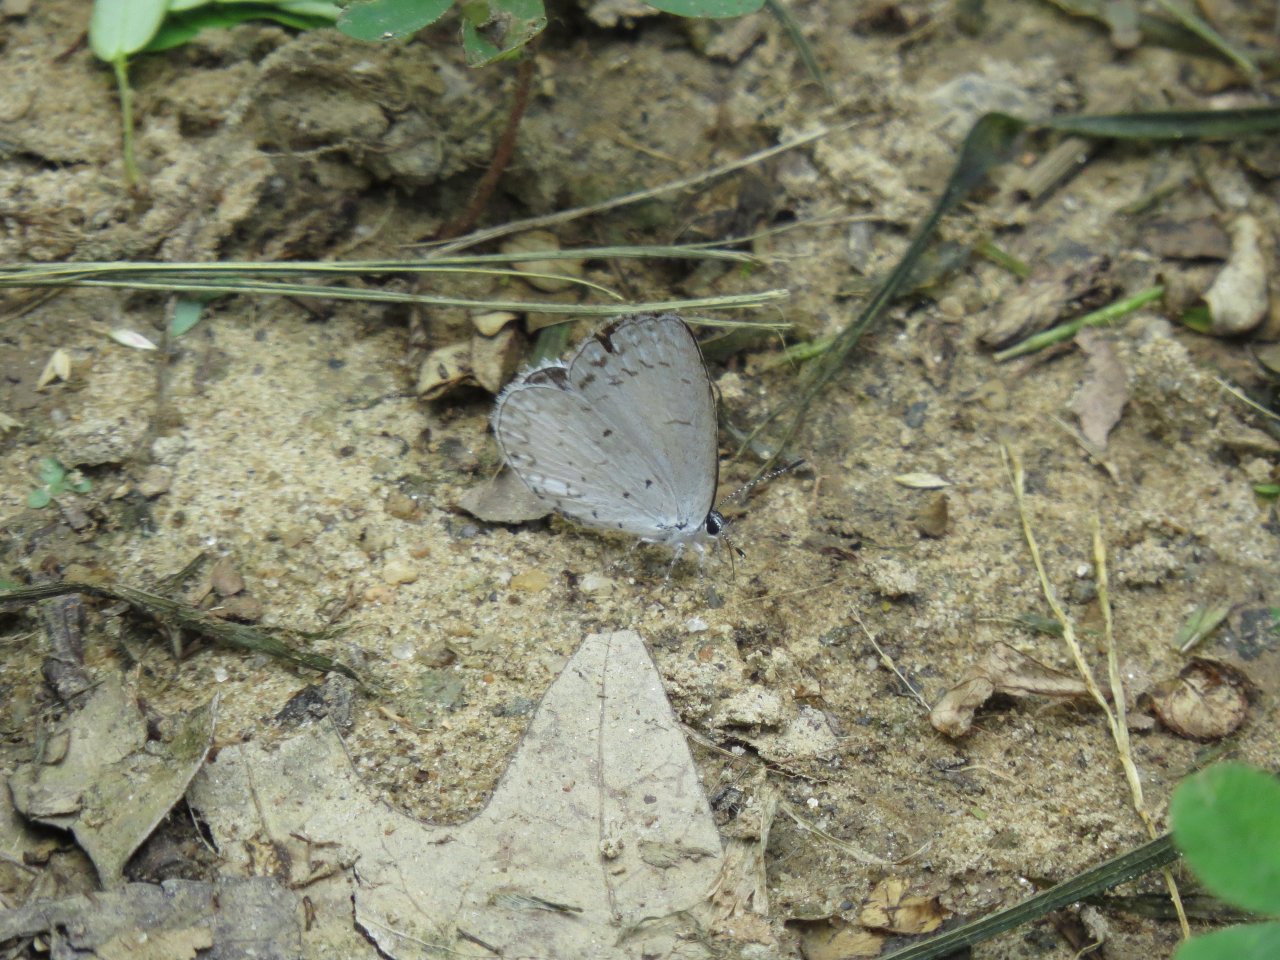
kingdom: Animalia
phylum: Arthropoda
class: Insecta
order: Lepidoptera
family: Lycaenidae
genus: Cyaniris
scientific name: Cyaniris neglecta
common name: Summer Azure
